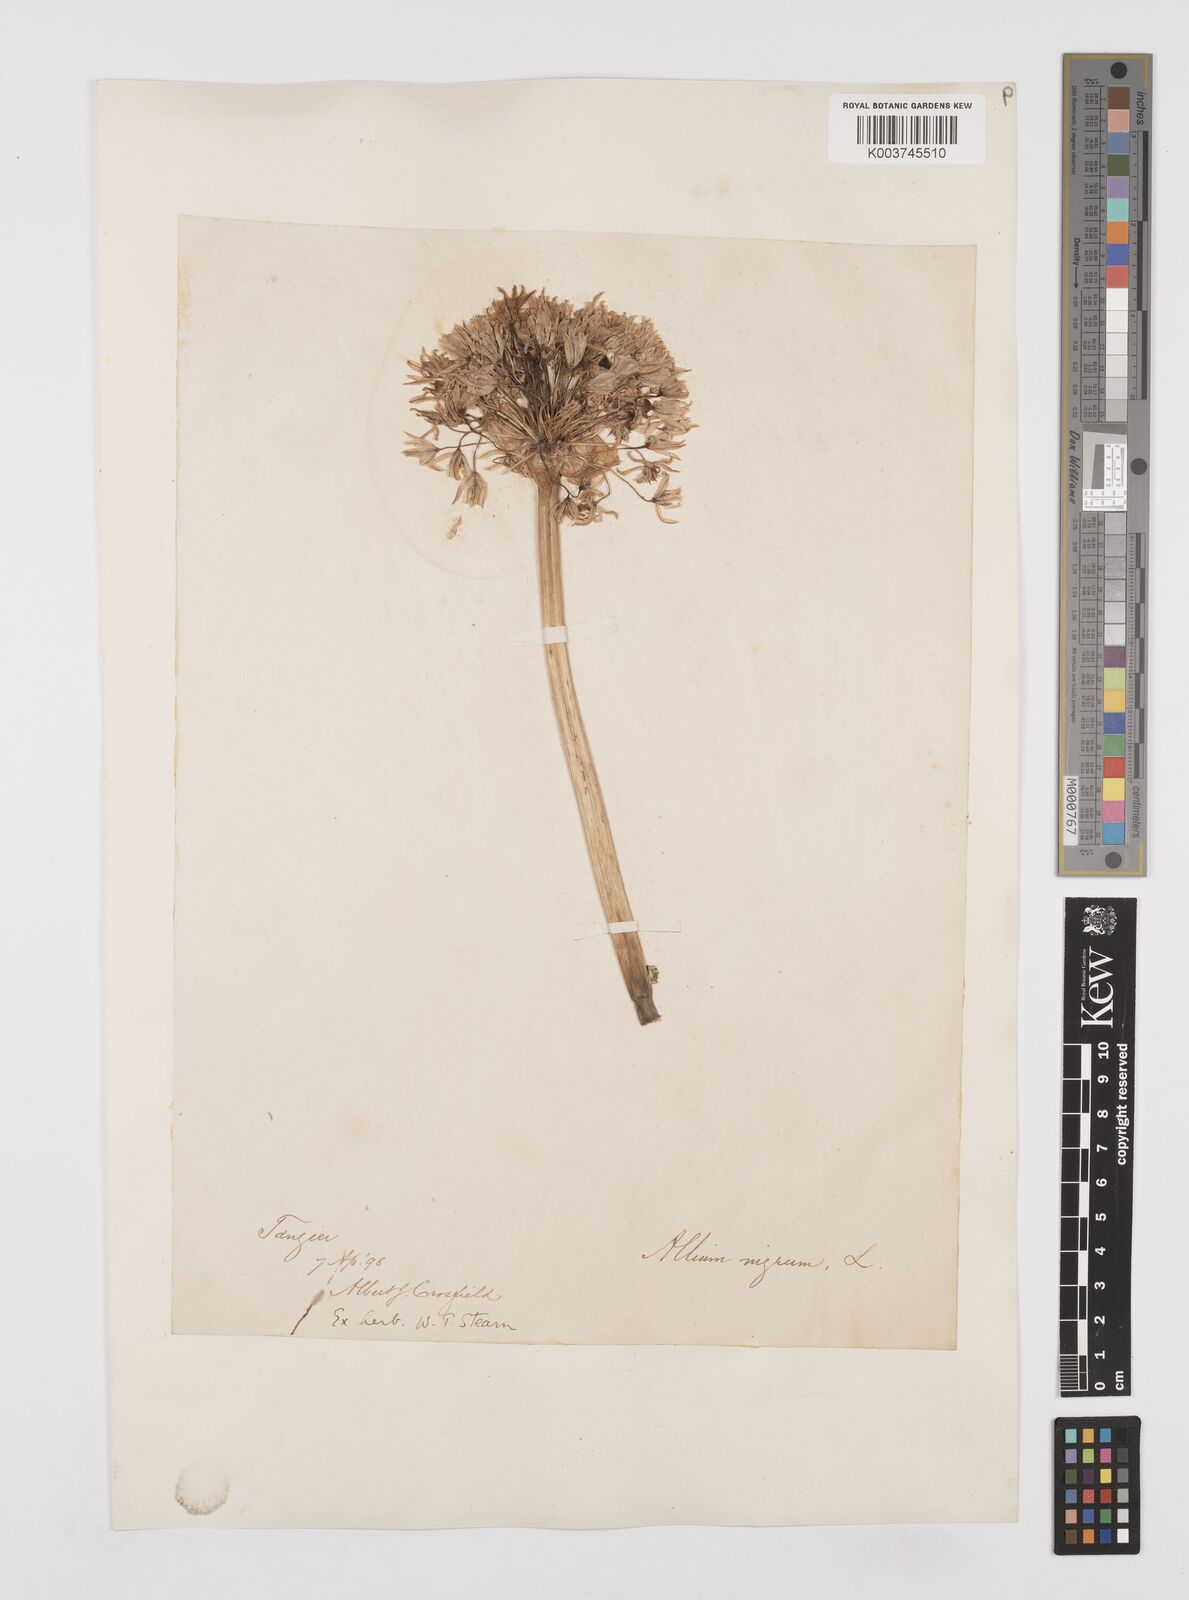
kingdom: Plantae
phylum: Tracheophyta
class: Liliopsida
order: Asparagales
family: Amaryllidaceae
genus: Allium
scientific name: Allium nigrum
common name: Black garlic
